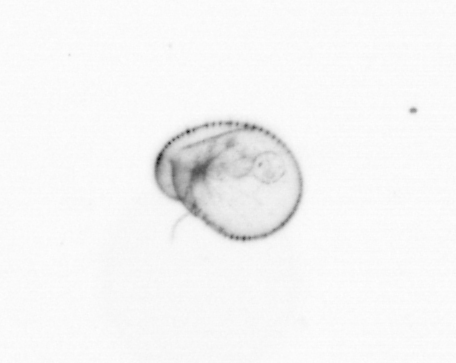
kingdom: Chromista
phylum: Myzozoa
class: Dinophyceae
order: Noctilucales
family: Noctilucaceae
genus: Noctiluca
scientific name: Noctiluca scintillans
